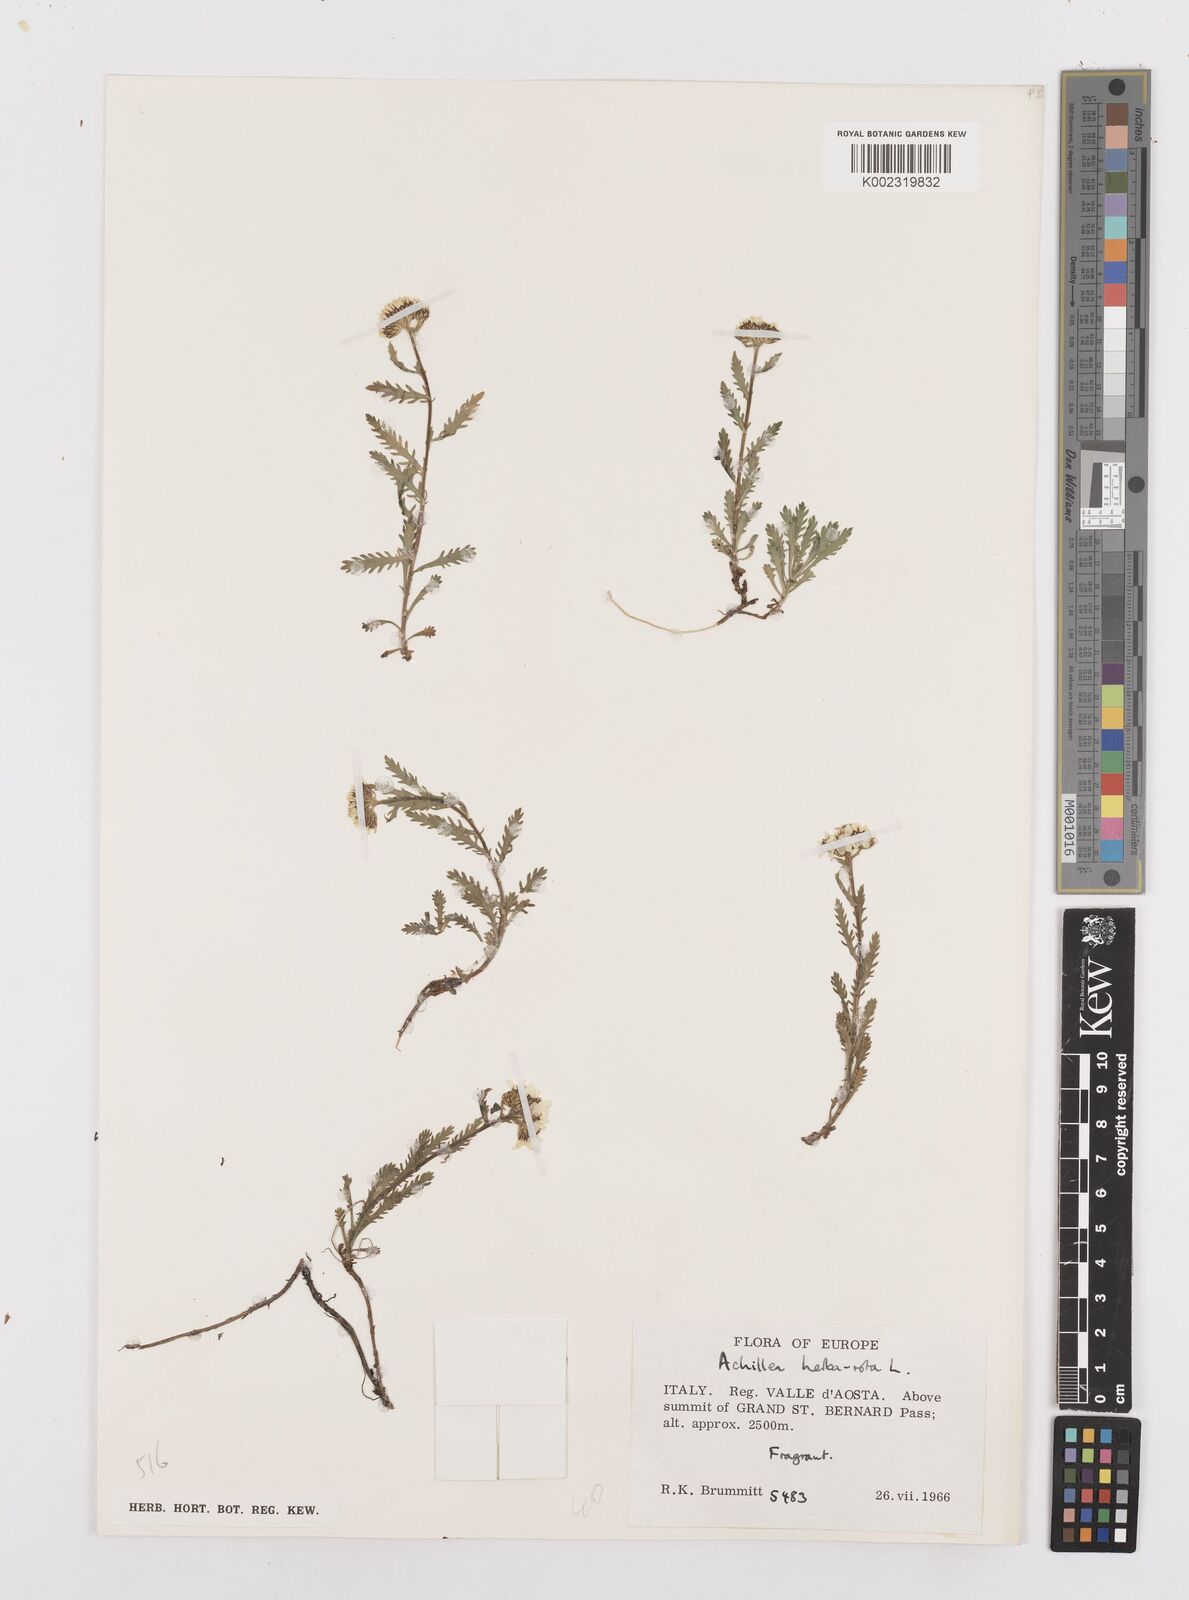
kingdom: Plantae
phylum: Tracheophyta
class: Magnoliopsida
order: Asterales
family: Asteraceae
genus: Achillea
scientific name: Achillea erba-rotta
